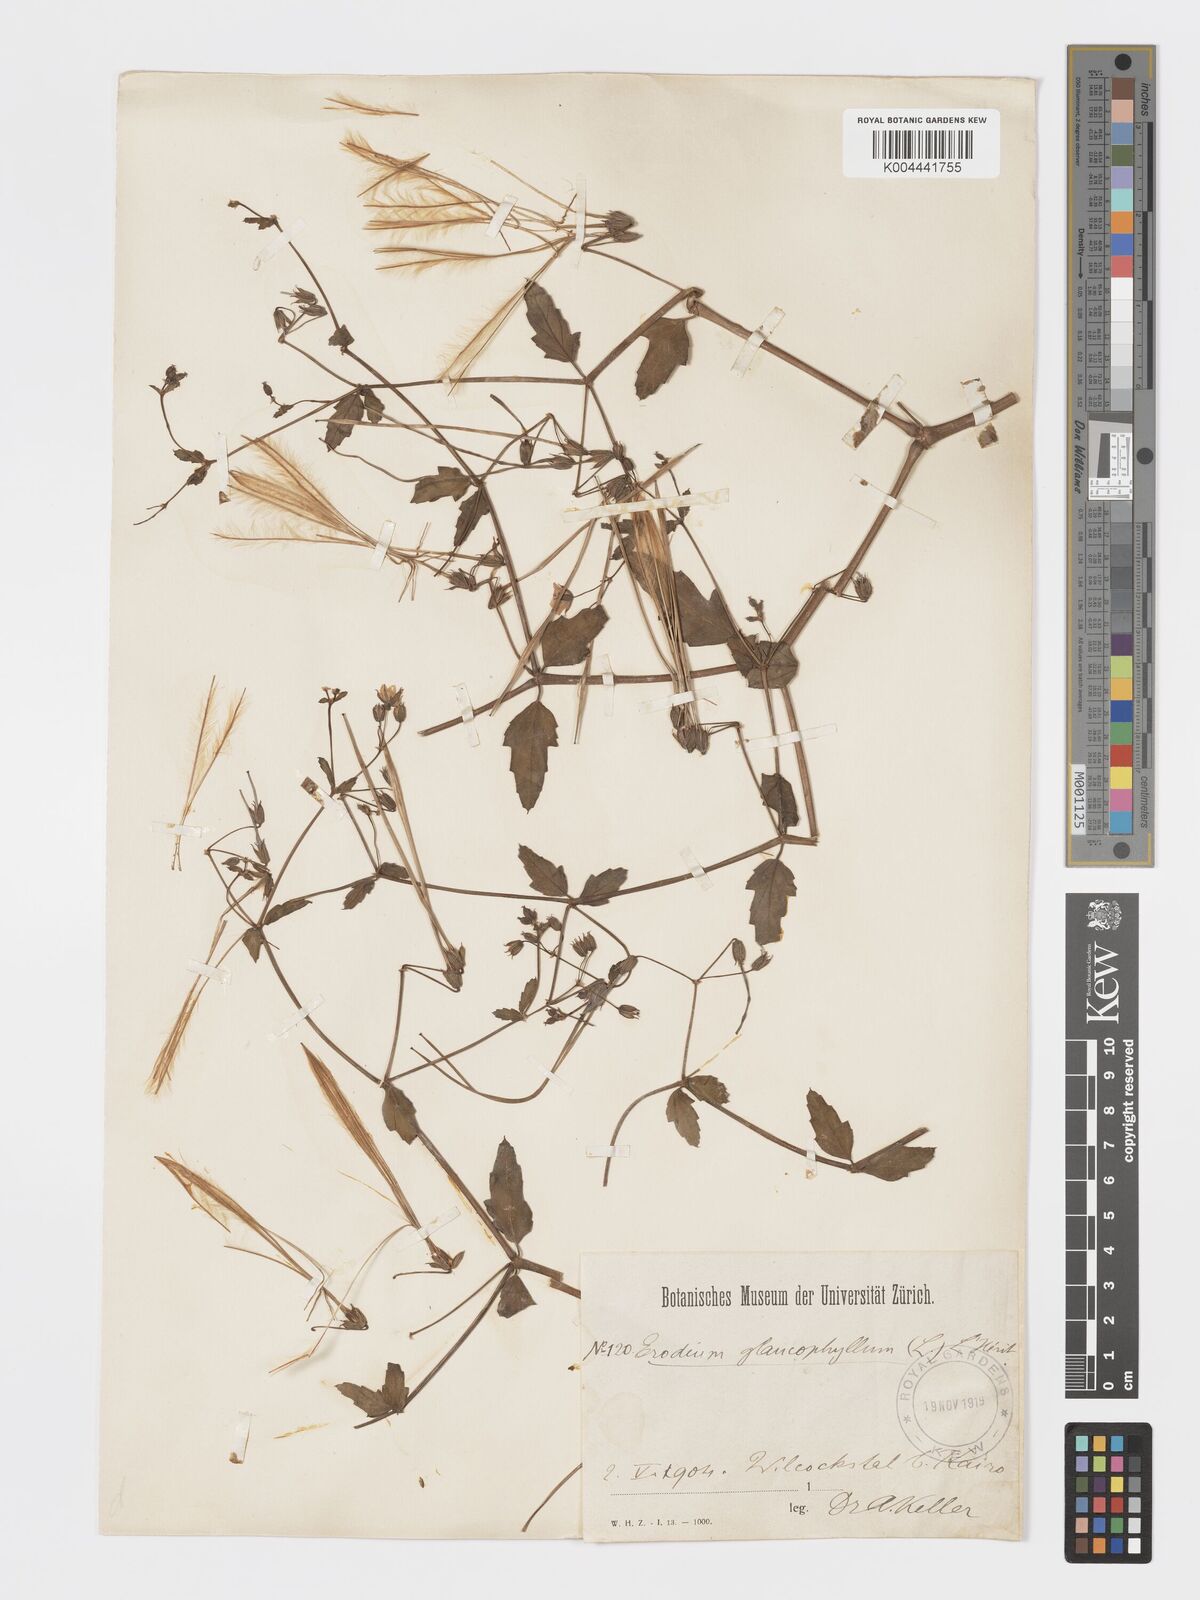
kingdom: Plantae
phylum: Tracheophyta
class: Magnoliopsida
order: Geraniales
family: Geraniaceae
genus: Erodium
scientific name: Erodium glaucophyllum
